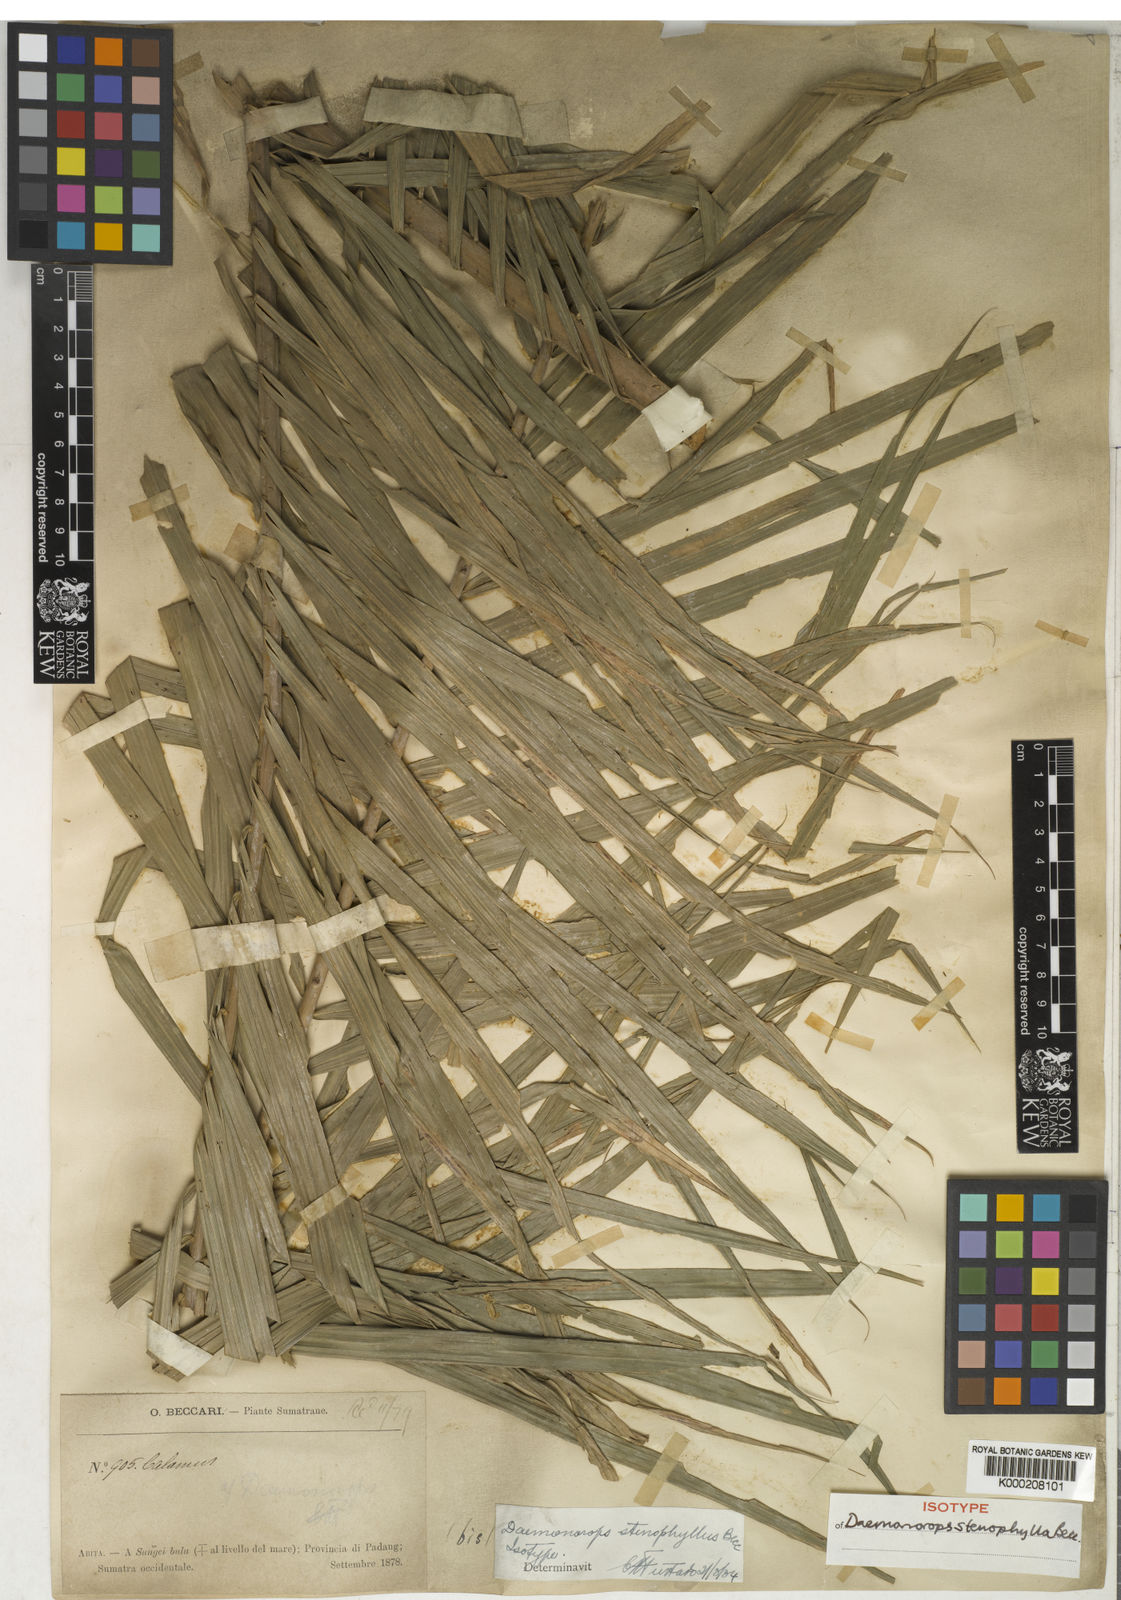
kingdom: Plantae
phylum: Tracheophyta
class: Liliopsida
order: Arecales
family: Arecaceae
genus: Calamus
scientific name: Calamus melanochaetes
